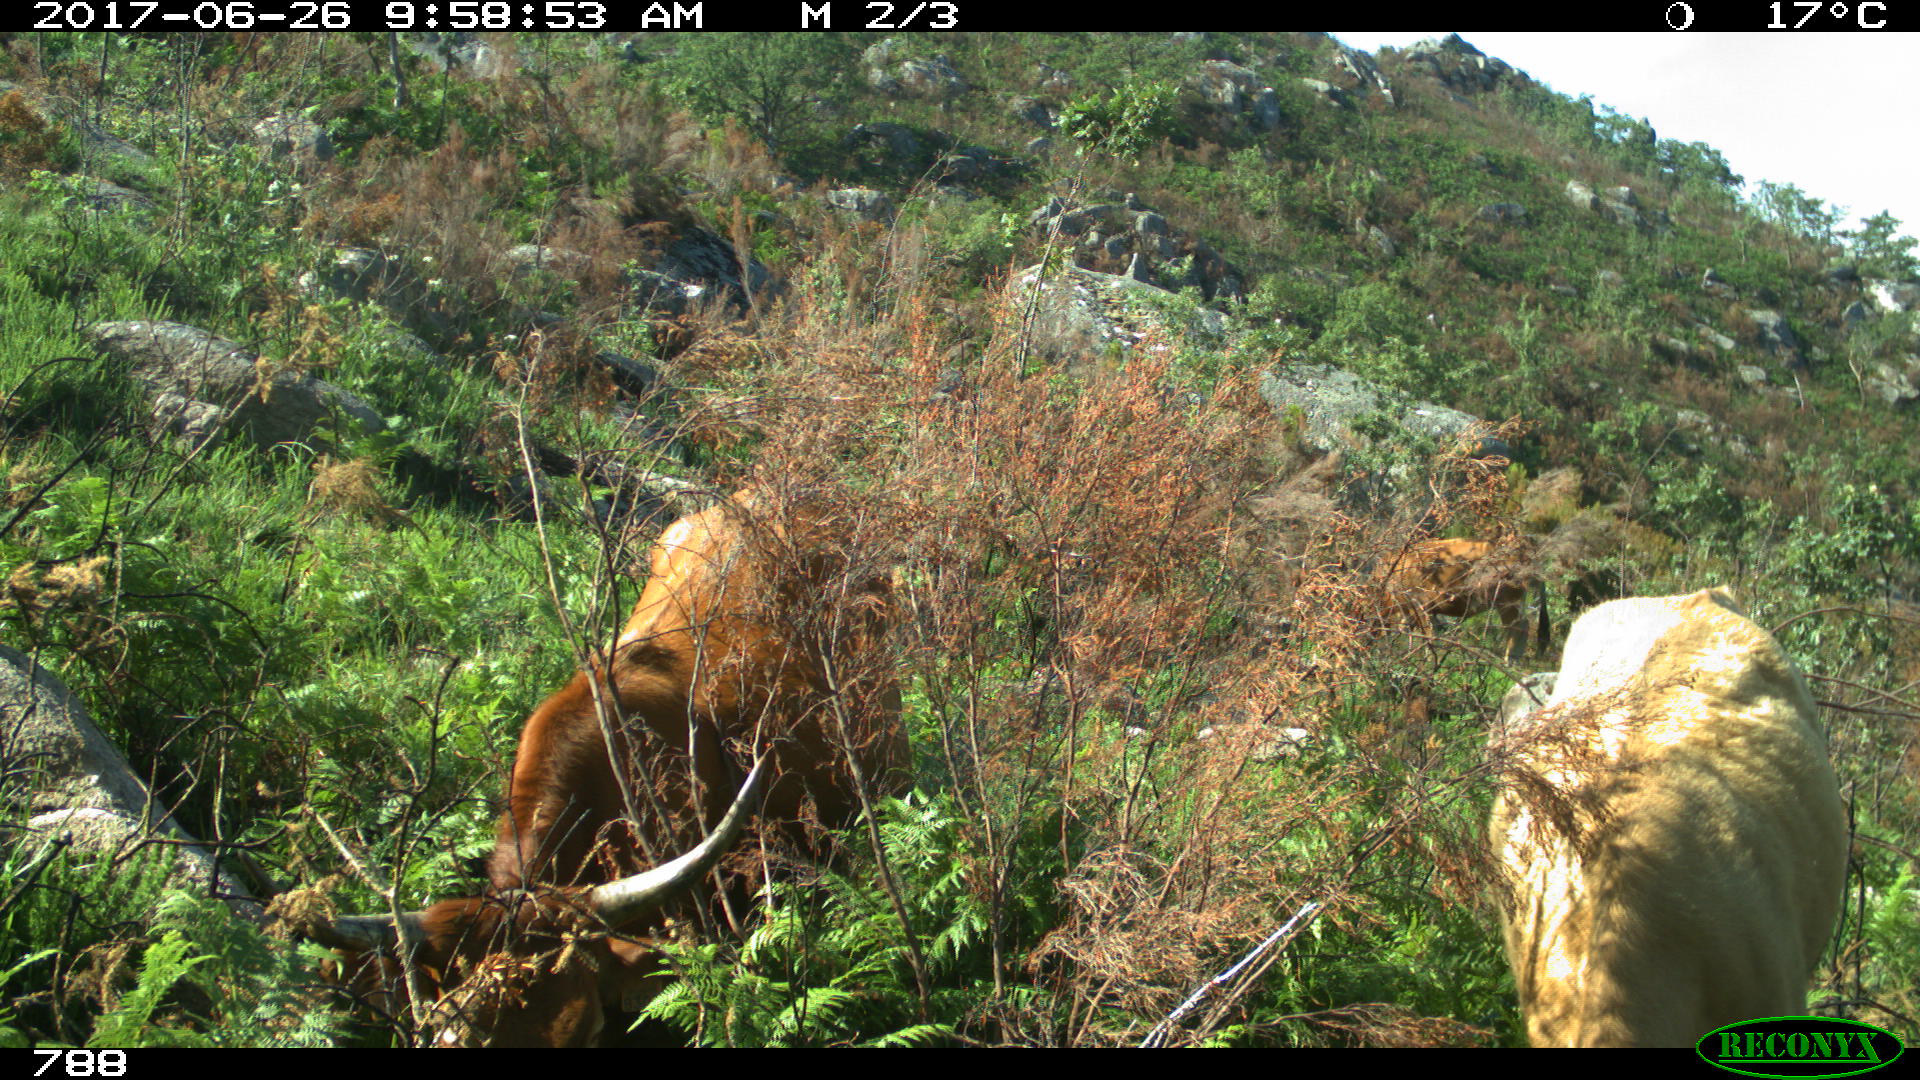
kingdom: Animalia
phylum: Chordata
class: Mammalia
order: Artiodactyla
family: Bovidae
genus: Bos
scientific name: Bos taurus
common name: Domesticated cattle
